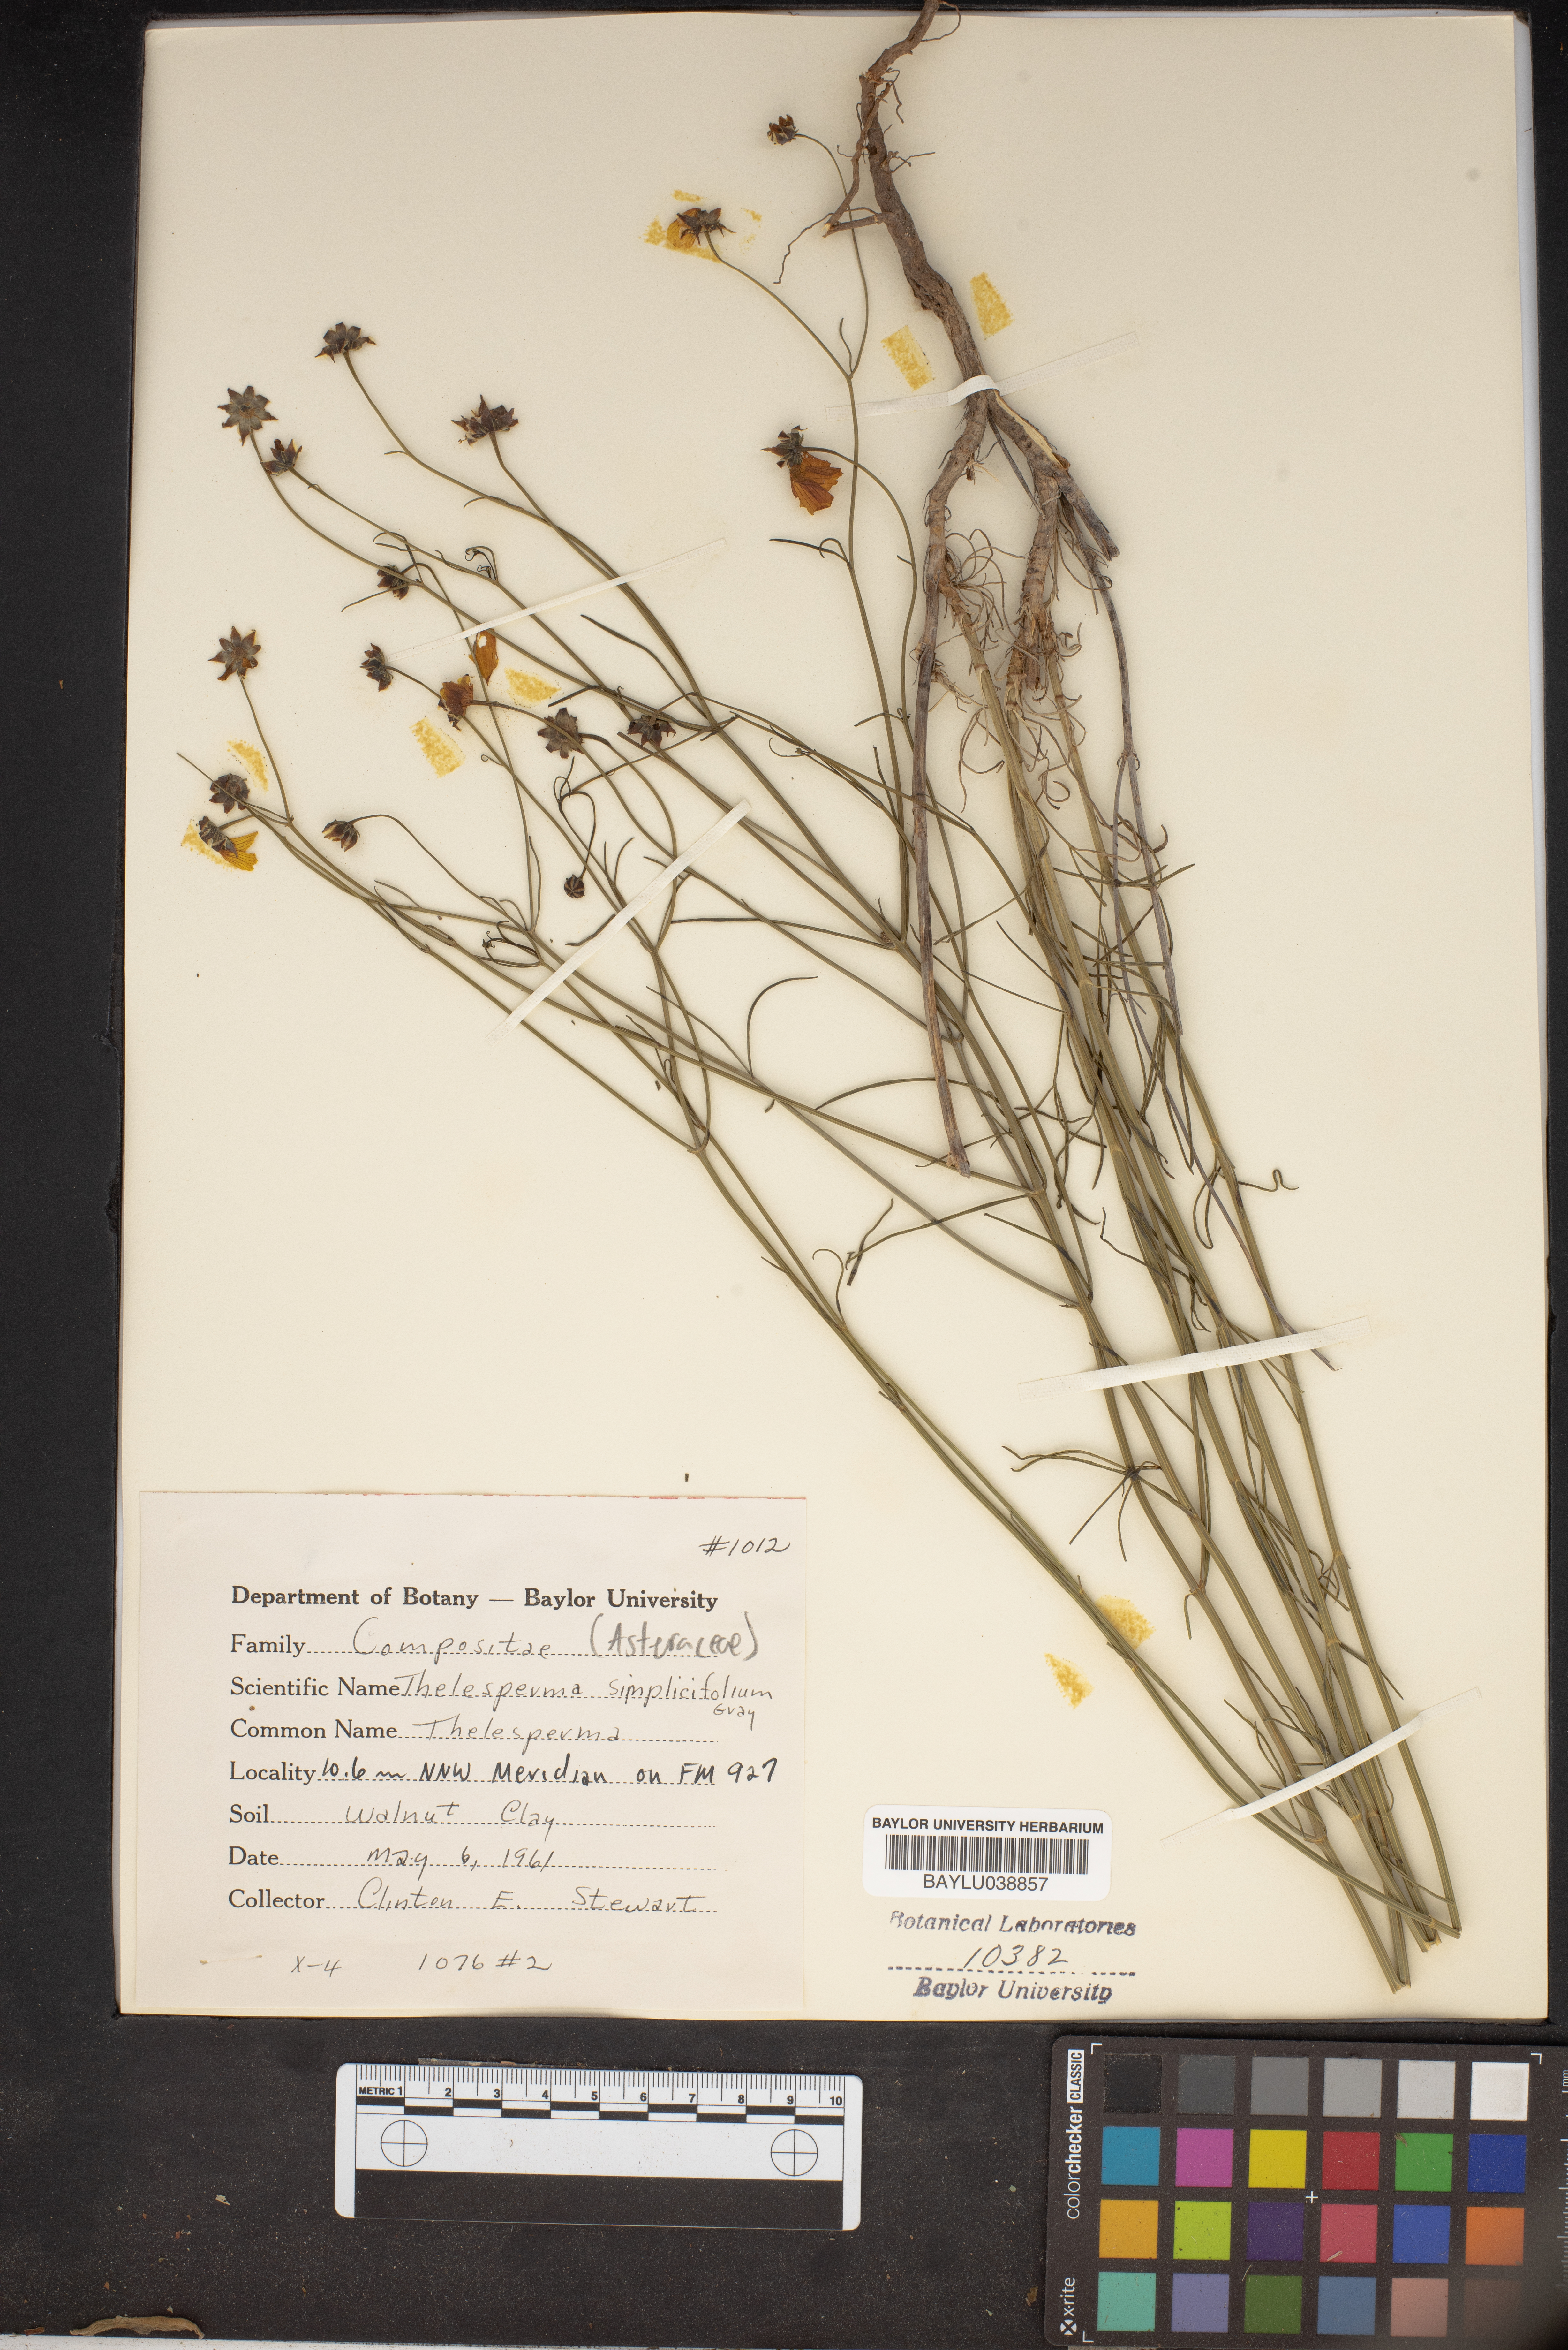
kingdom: Plantae
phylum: Tracheophyta
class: Magnoliopsida
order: Asterales
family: Asteraceae
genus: Thelesperma
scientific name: Thelesperma simplicifolium
